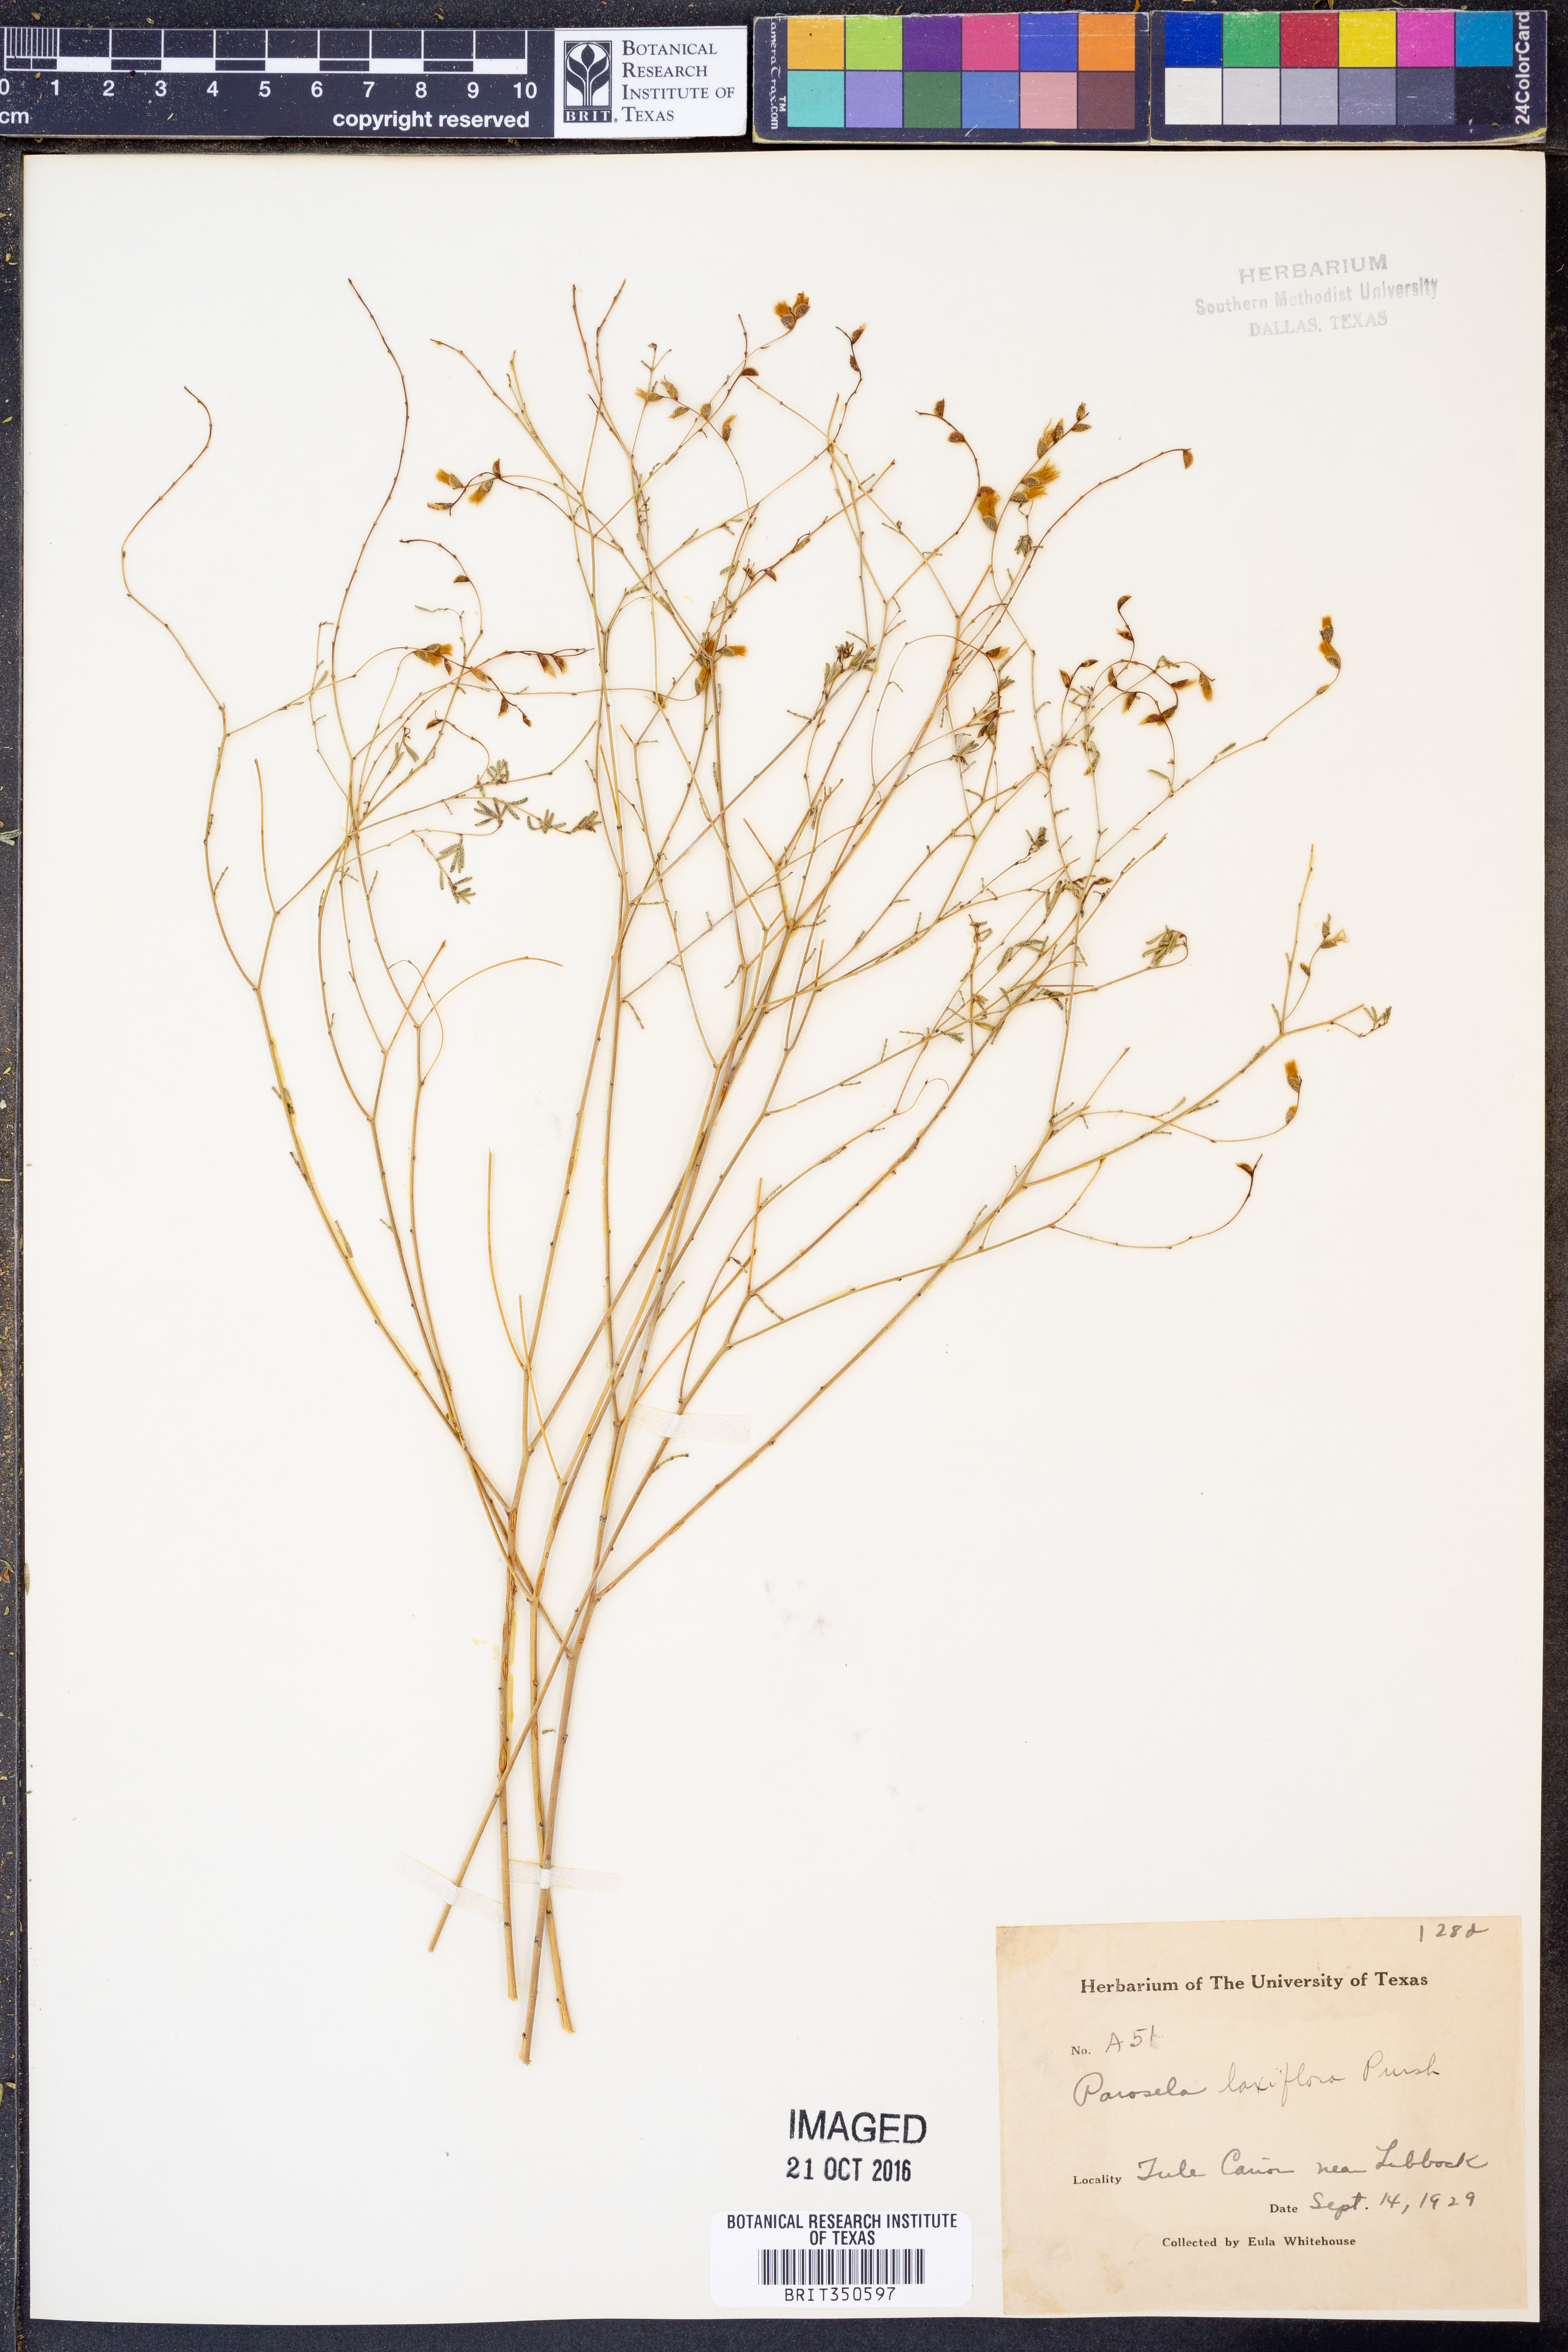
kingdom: Plantae
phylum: Tracheophyta
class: Magnoliopsida
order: Fabales
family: Fabaceae
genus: Dalea
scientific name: Dalea enneandra
